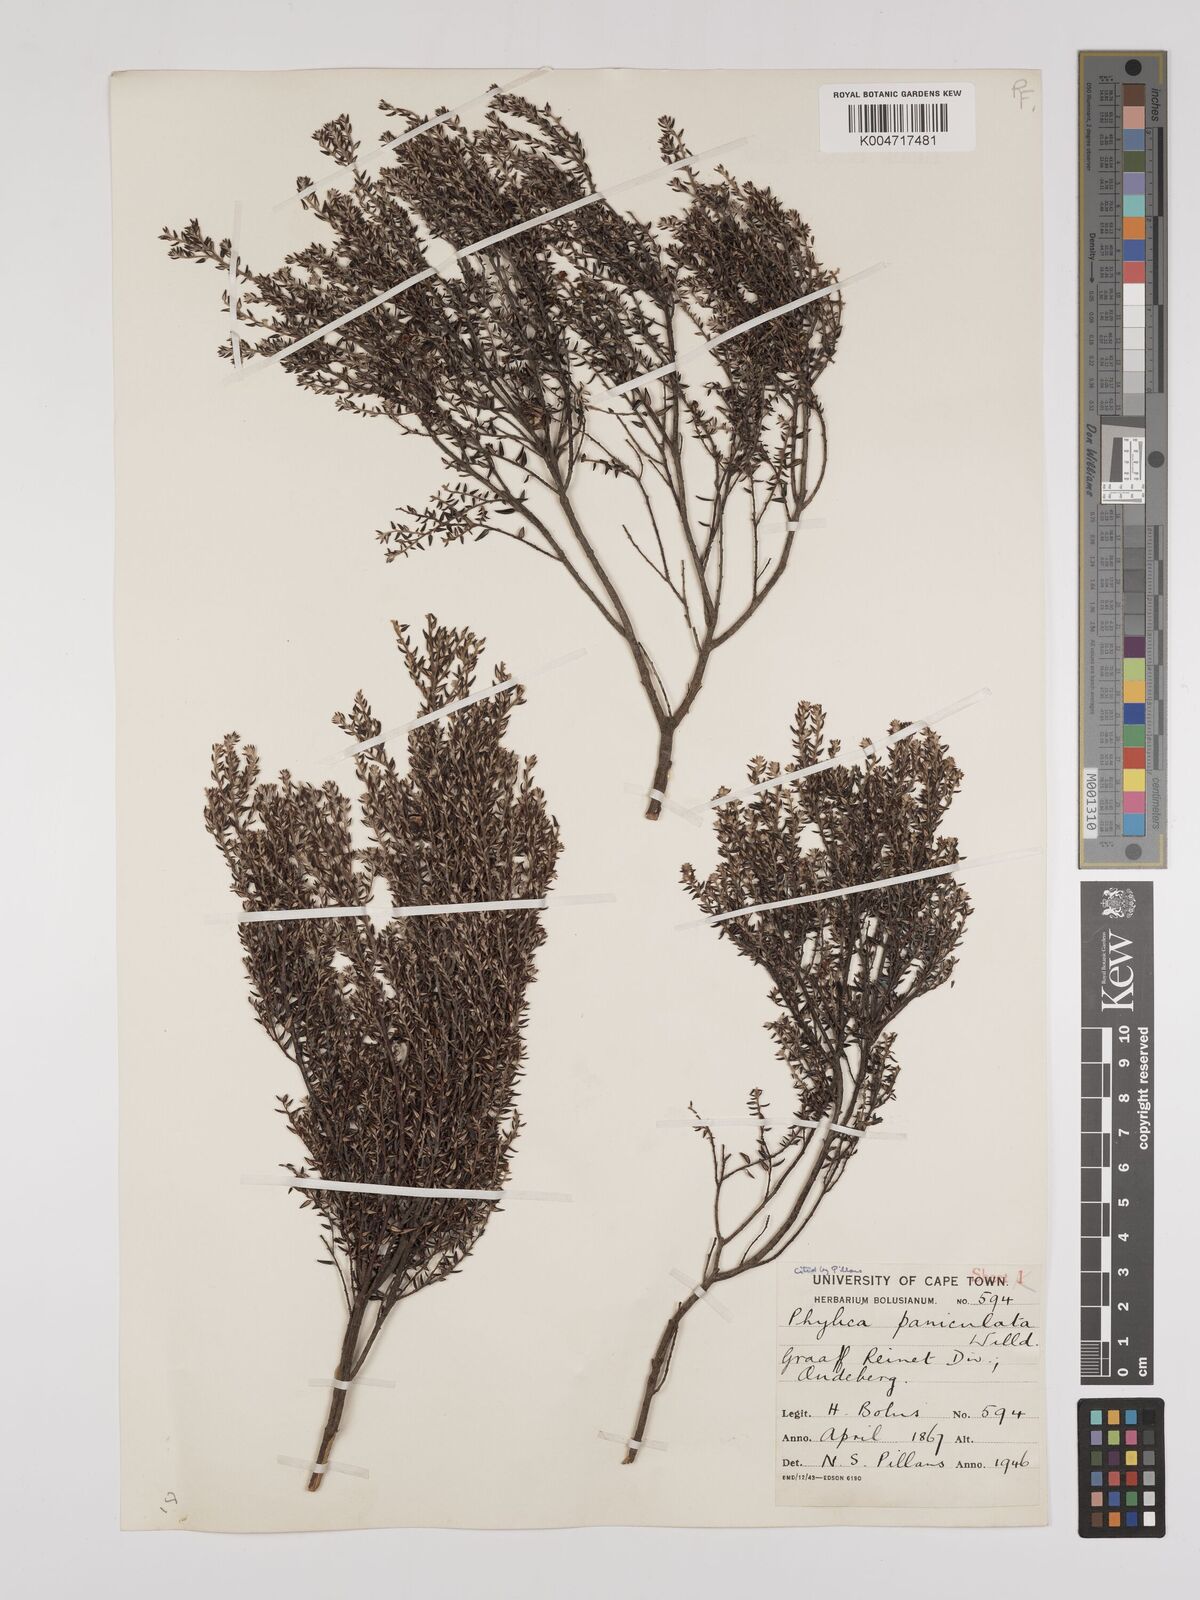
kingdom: Plantae
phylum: Tracheophyta
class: Magnoliopsida
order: Rosales
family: Rhamnaceae
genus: Phylica
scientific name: Phylica paniculata
